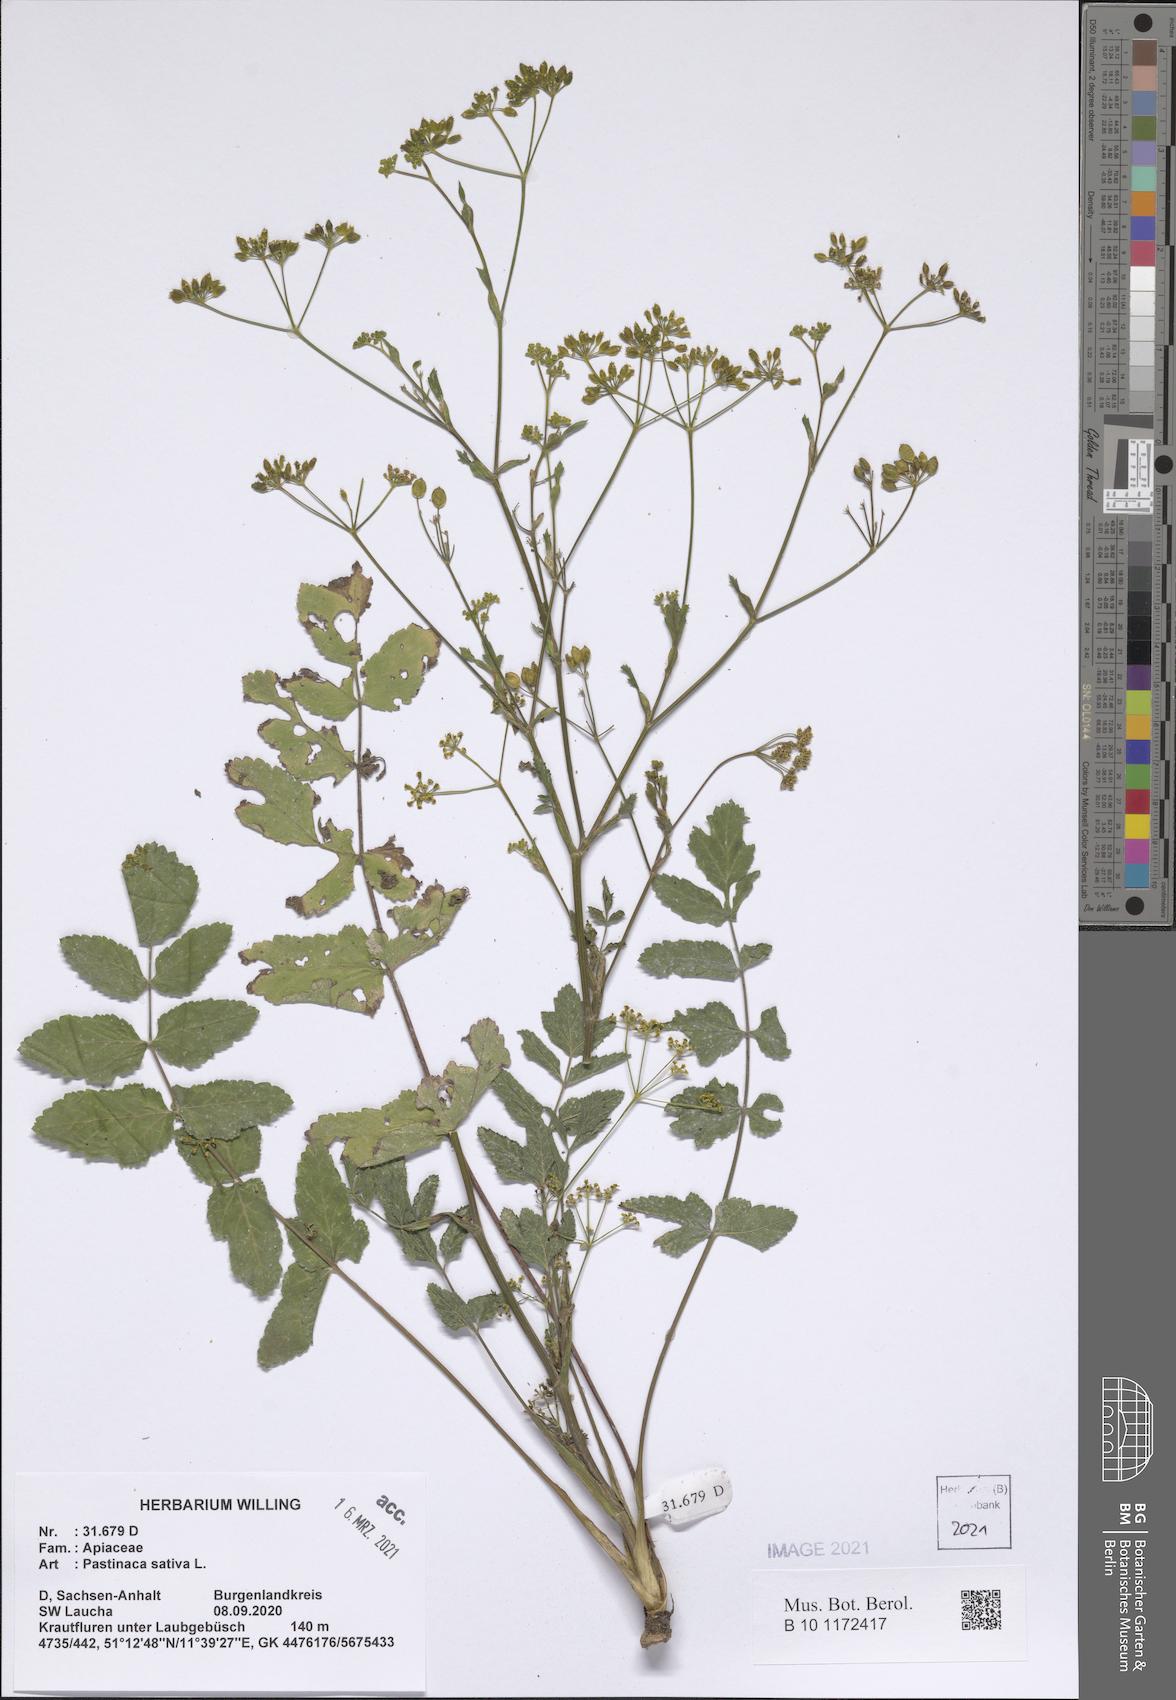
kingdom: Plantae
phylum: Tracheophyta
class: Magnoliopsida
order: Apiales
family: Apiaceae
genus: Pastinaca
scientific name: Pastinaca sativa
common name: Wild parsnip
